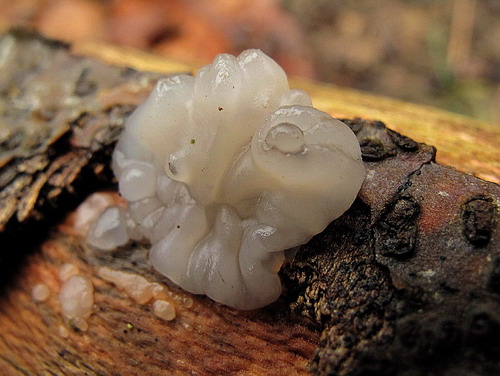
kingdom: Fungi
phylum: Basidiomycota
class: Agaricomycetes
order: Auriculariales
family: Auriculariaceae
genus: Exidia
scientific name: Exidia thuretiana
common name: hvidlig bævretop
